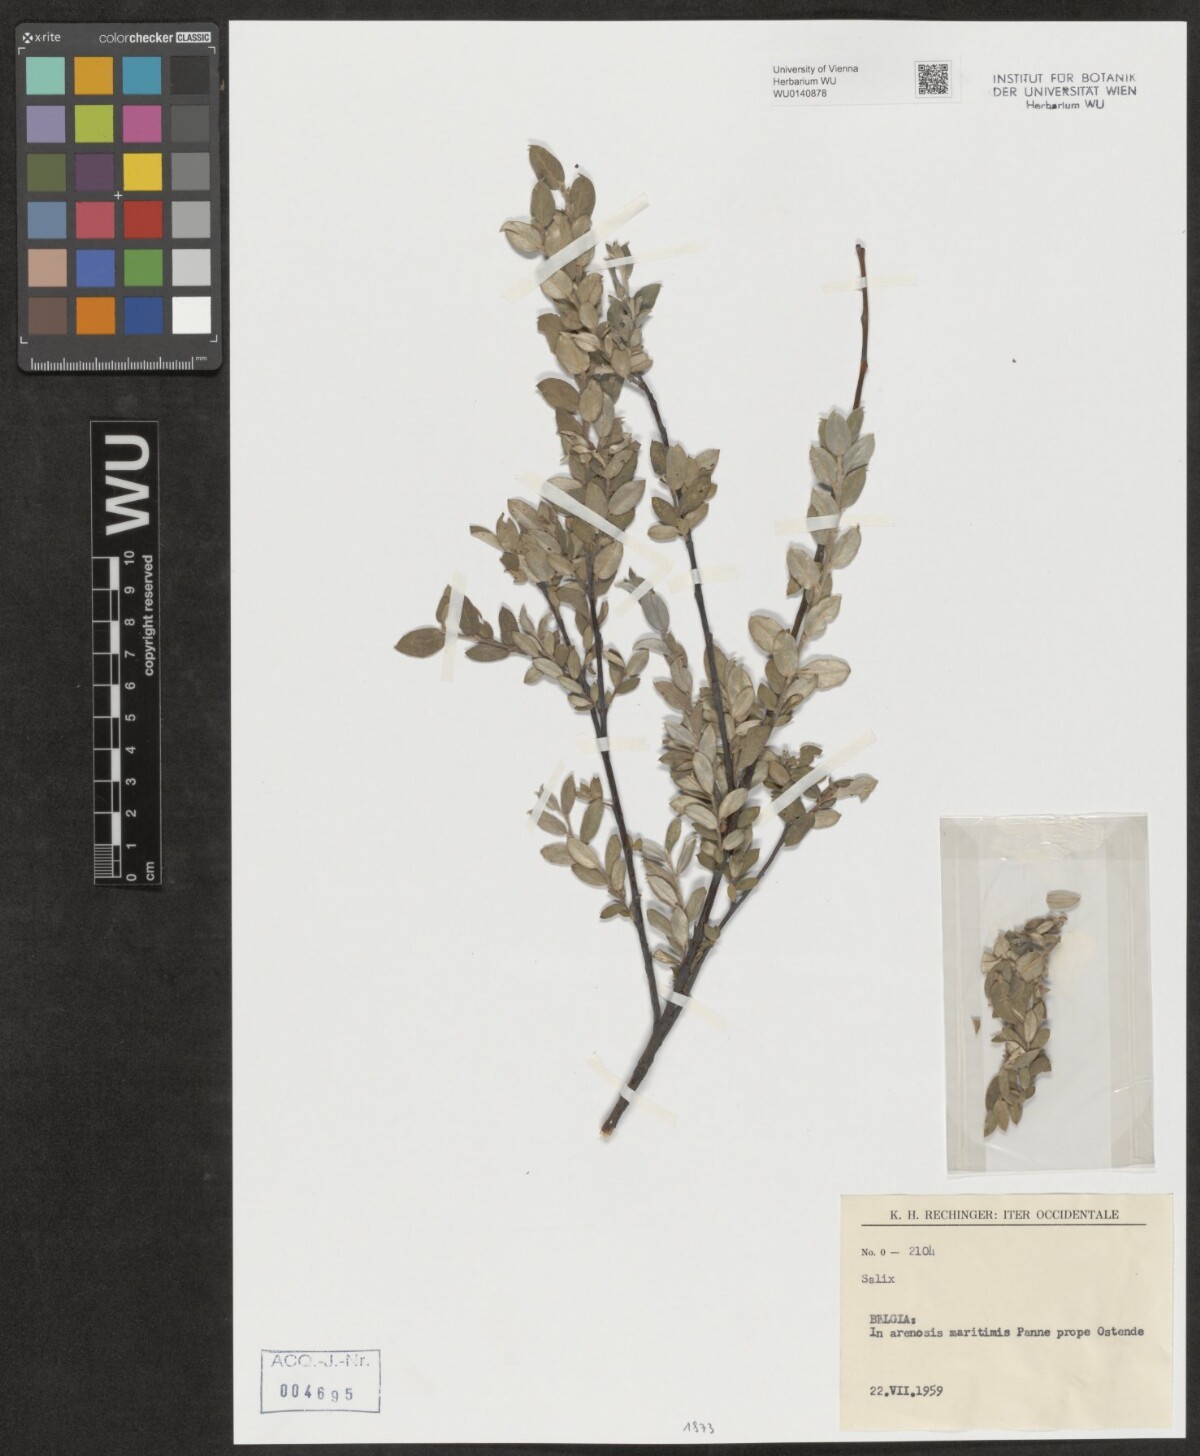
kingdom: Plantae
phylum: Tracheophyta
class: Magnoliopsida
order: Malpighiales
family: Salicaceae
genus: Salix
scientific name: Salix
